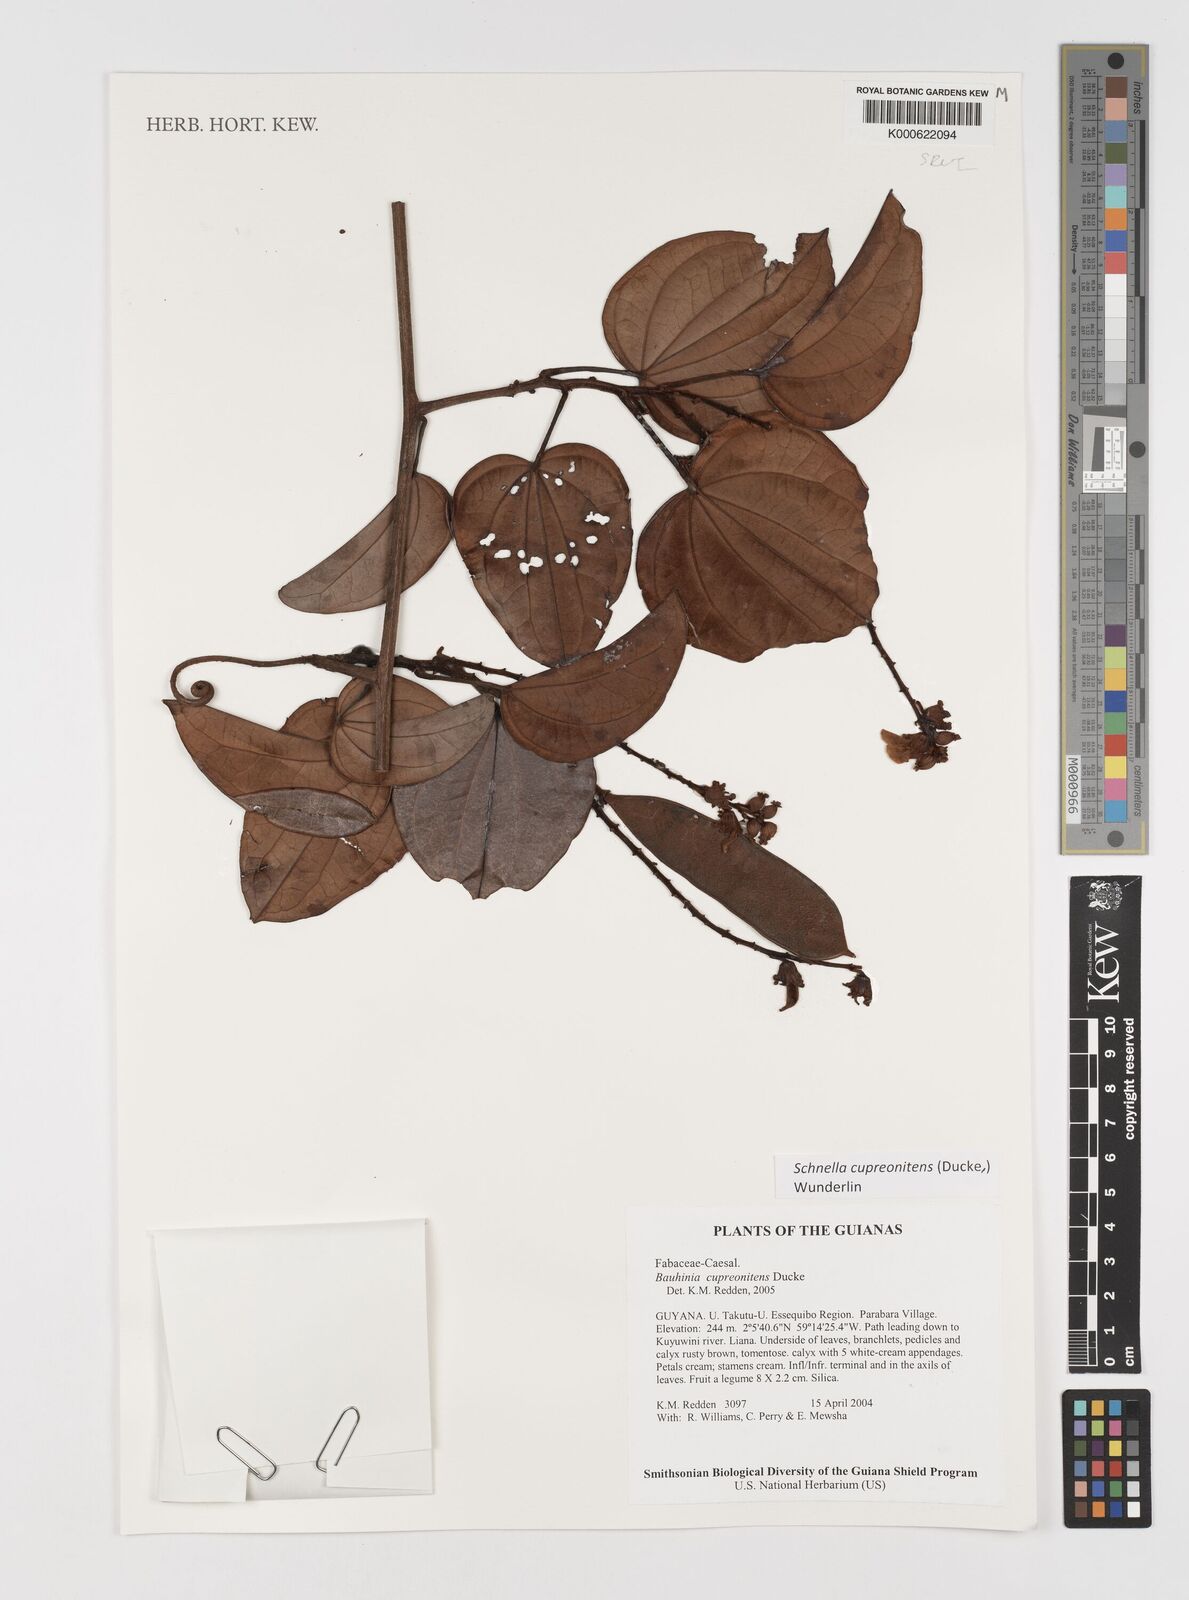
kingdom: Plantae
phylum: Tracheophyta
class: Magnoliopsida
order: Fabales
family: Fabaceae
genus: Schnella
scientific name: Schnella cupreonitens
